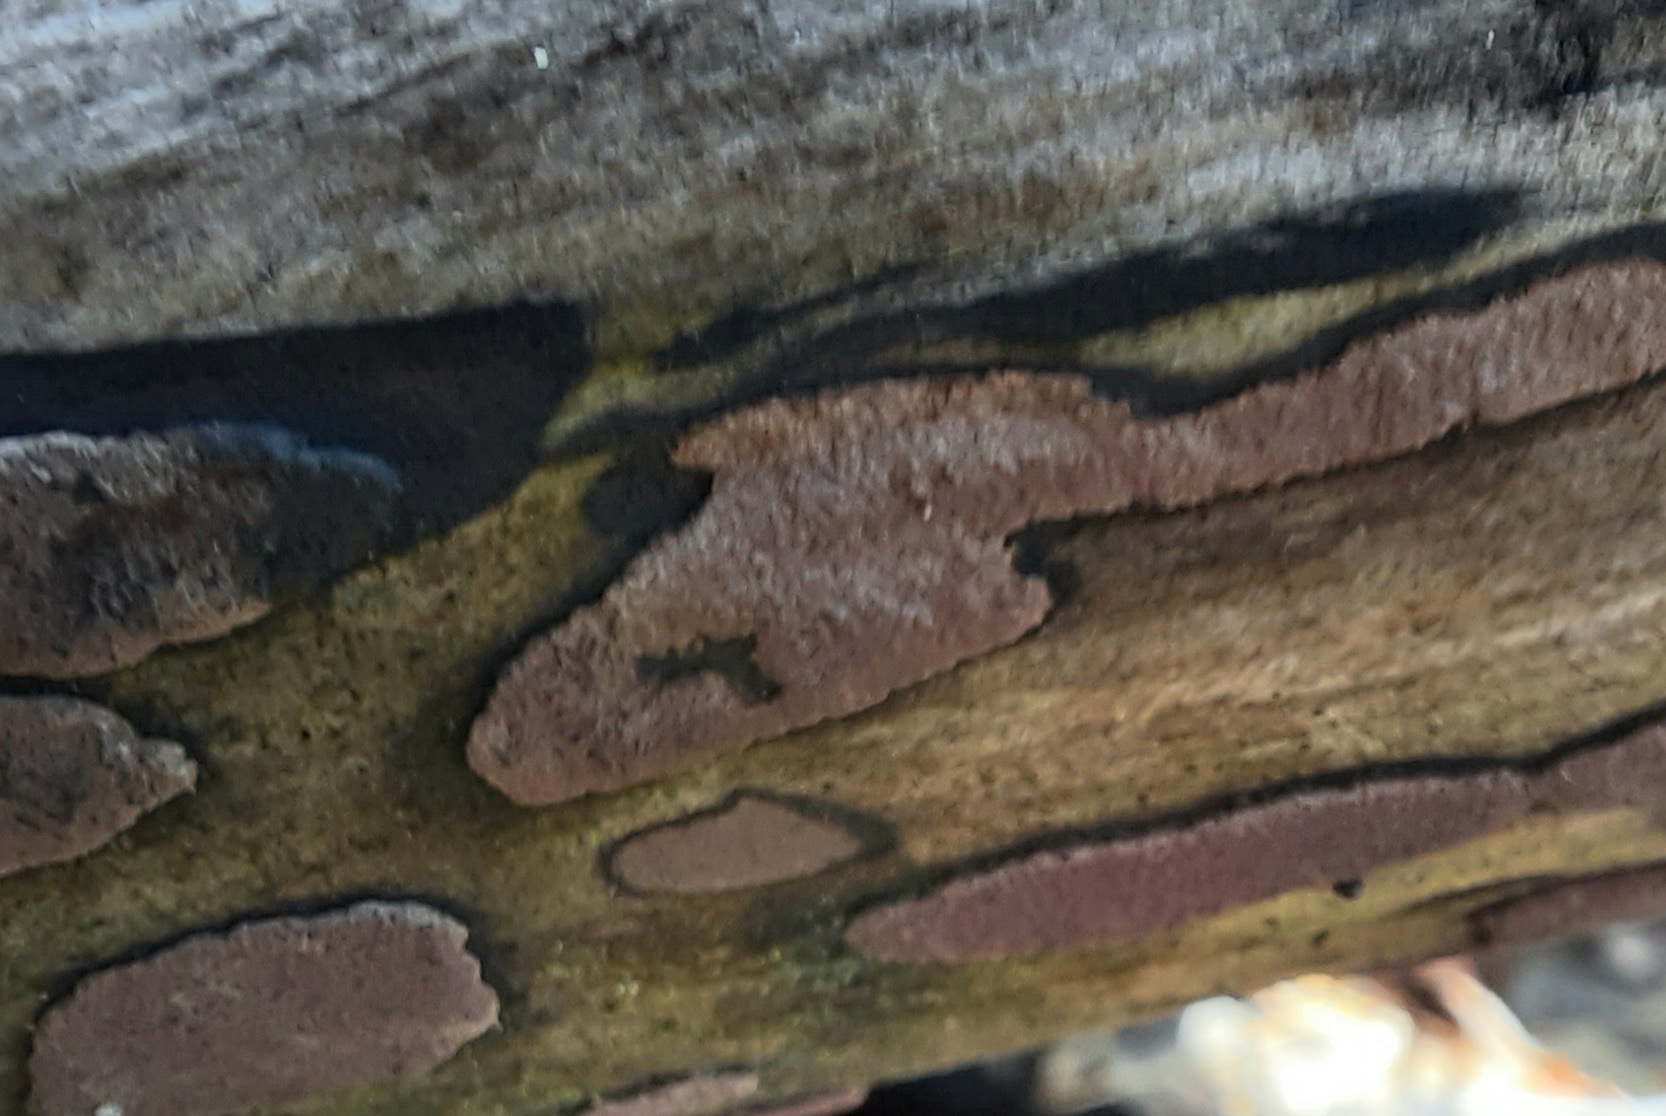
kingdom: Fungi
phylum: Ascomycota
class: Sordariomycetes
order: Xylariales
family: Hypoxylaceae
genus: Hypoxylon
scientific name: Hypoxylon petriniae
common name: nedsænket kulbær
